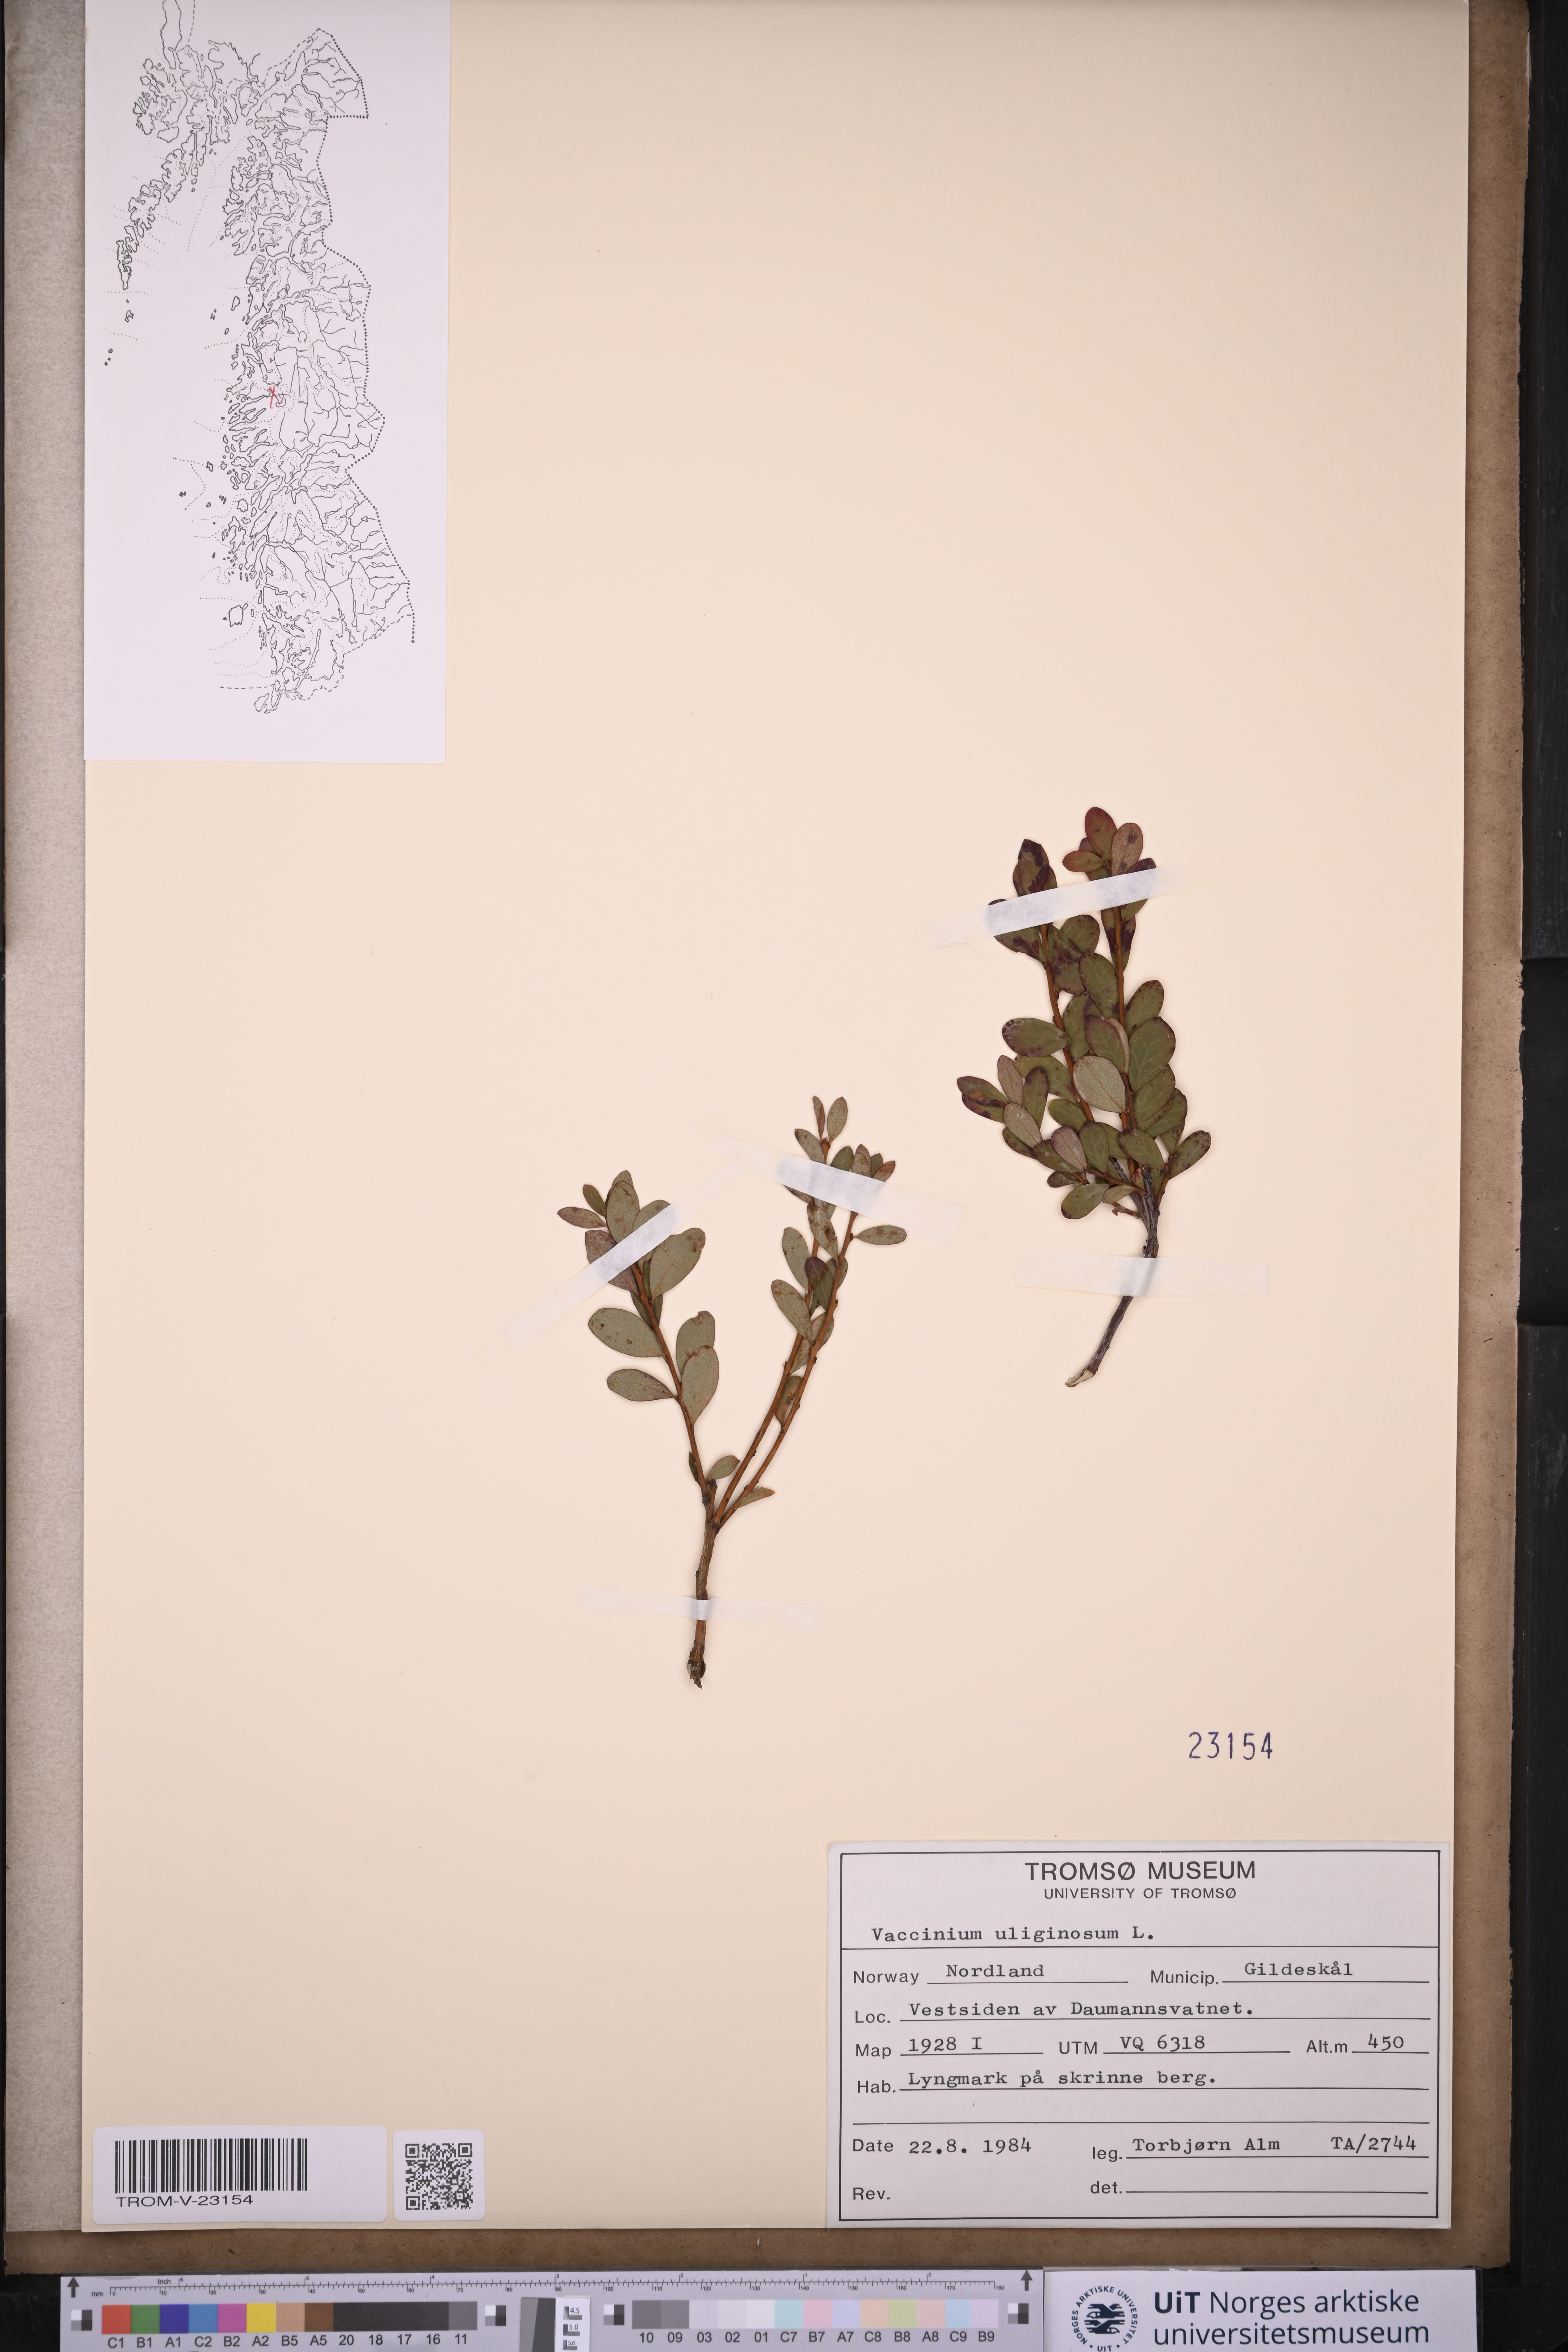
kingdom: Plantae
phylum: Tracheophyta
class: Magnoliopsida
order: Ericales
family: Ericaceae
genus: Vaccinium
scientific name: Vaccinium uliginosum
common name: Bog bilberry
